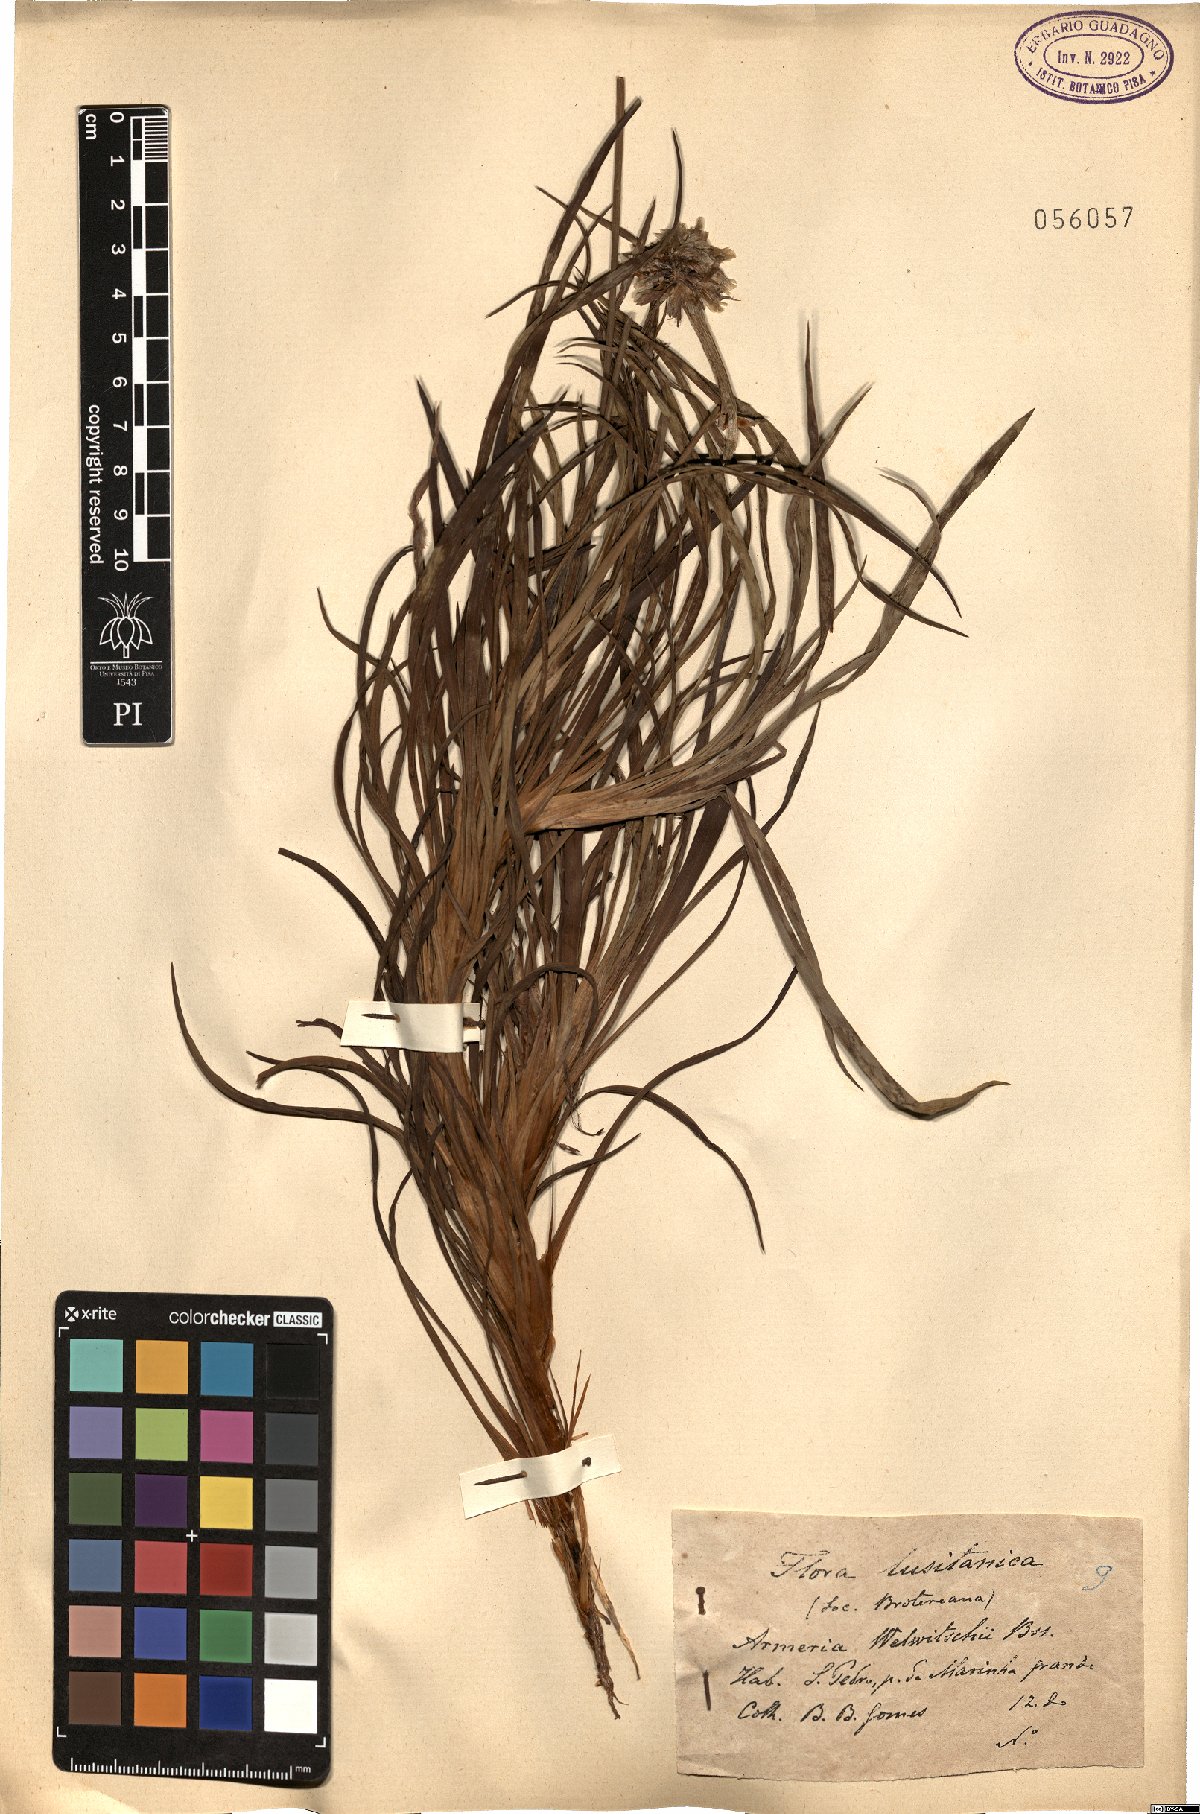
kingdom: Plantae
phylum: Tracheophyta
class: Magnoliopsida
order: Caryophyllales
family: Plumbaginaceae
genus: Armeria
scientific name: Armeria welwitschii
